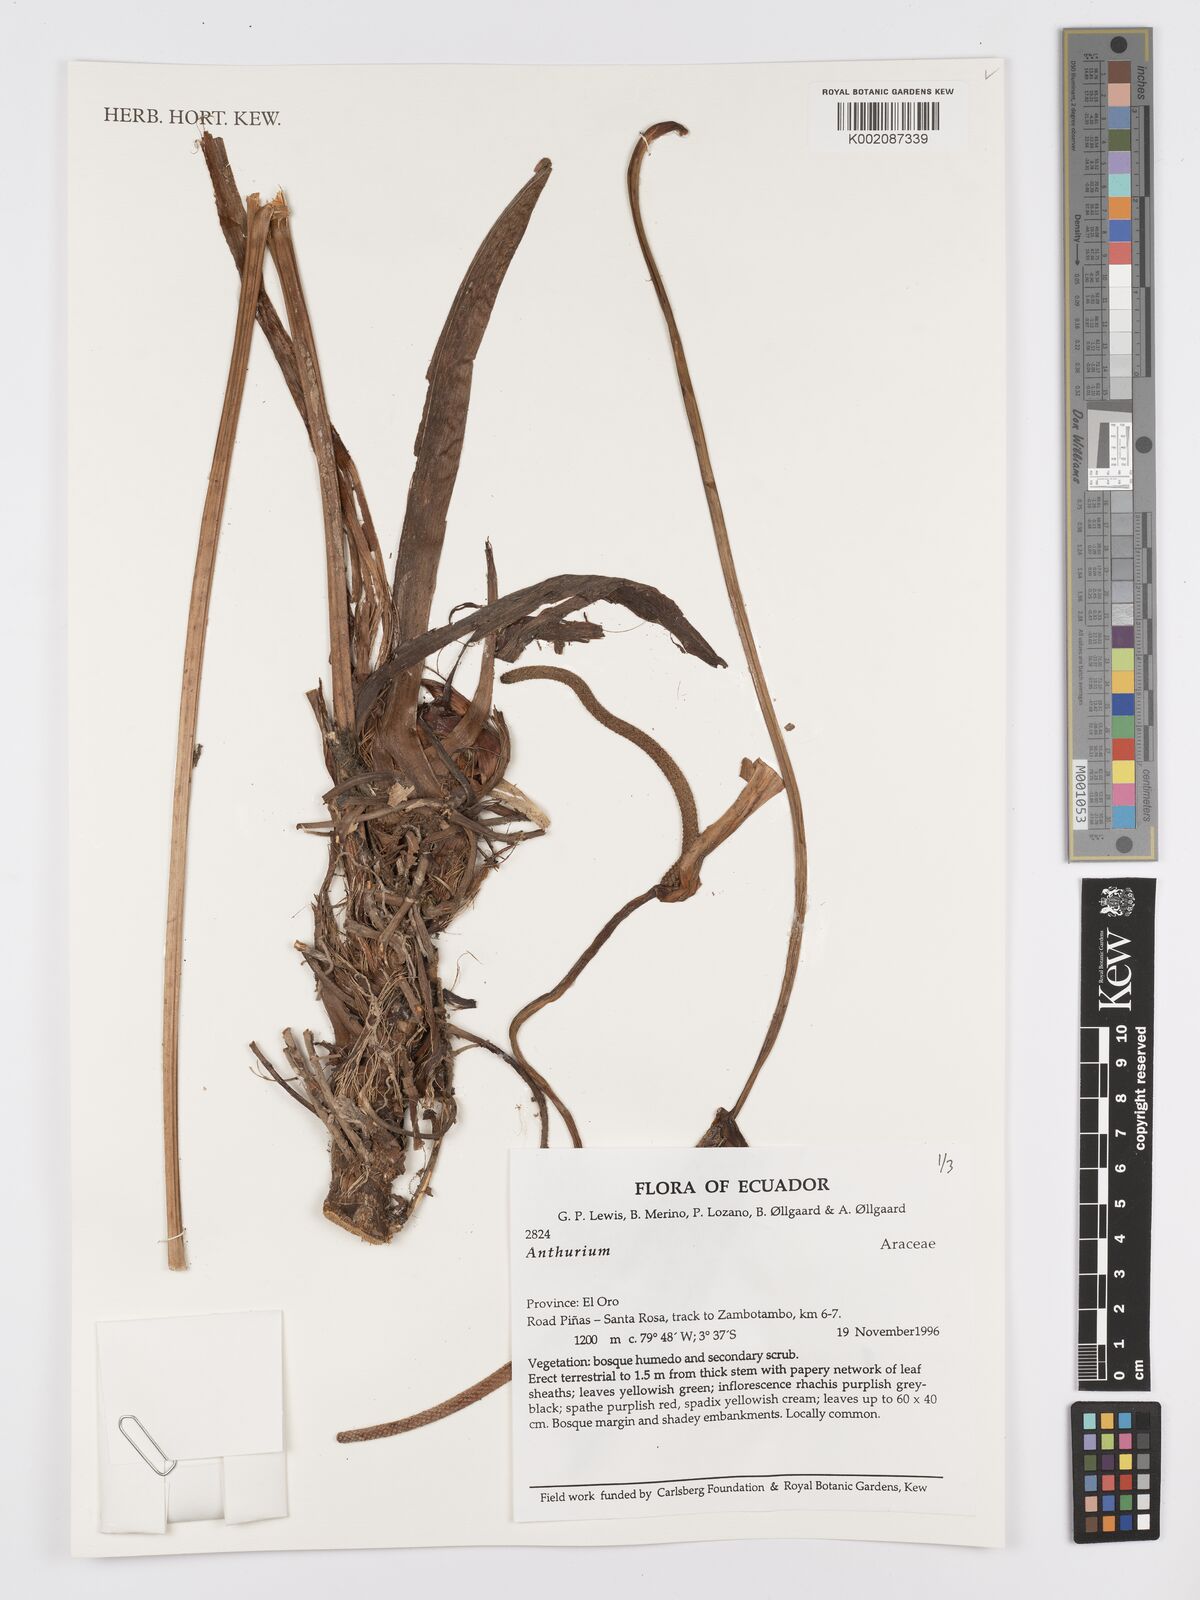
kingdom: Plantae
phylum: Tracheophyta
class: Liliopsida
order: Alismatales
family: Araceae
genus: Anthurium
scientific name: Anthurium
